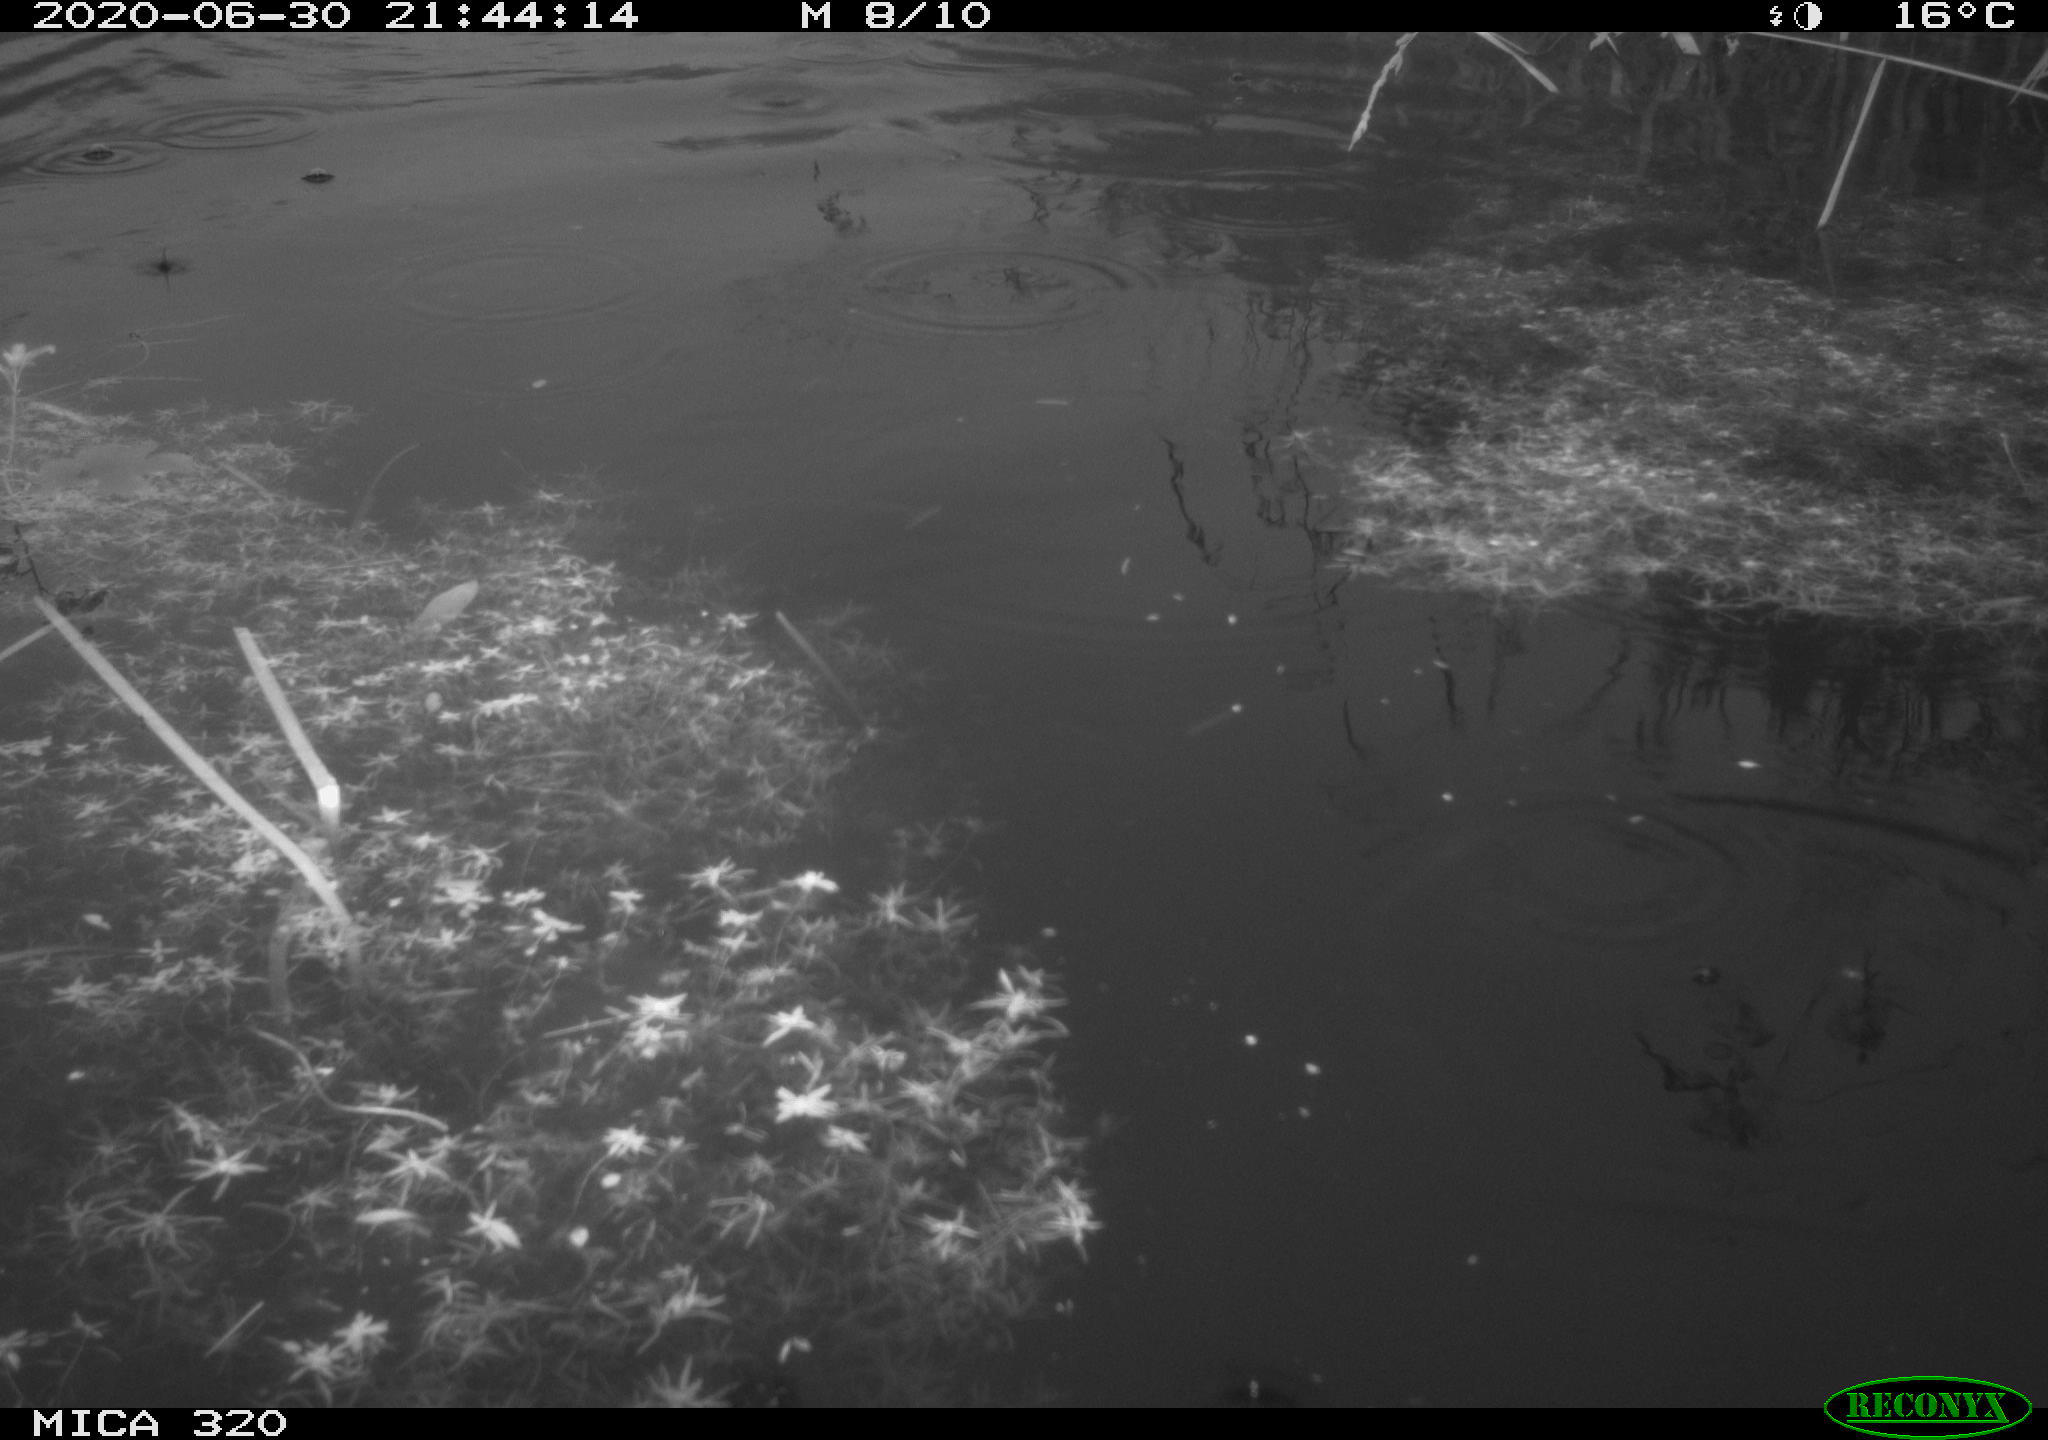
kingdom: Animalia
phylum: Chordata
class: Aves
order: Anseriformes
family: Anatidae
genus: Anas
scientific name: Anas platyrhynchos
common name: Mallard
